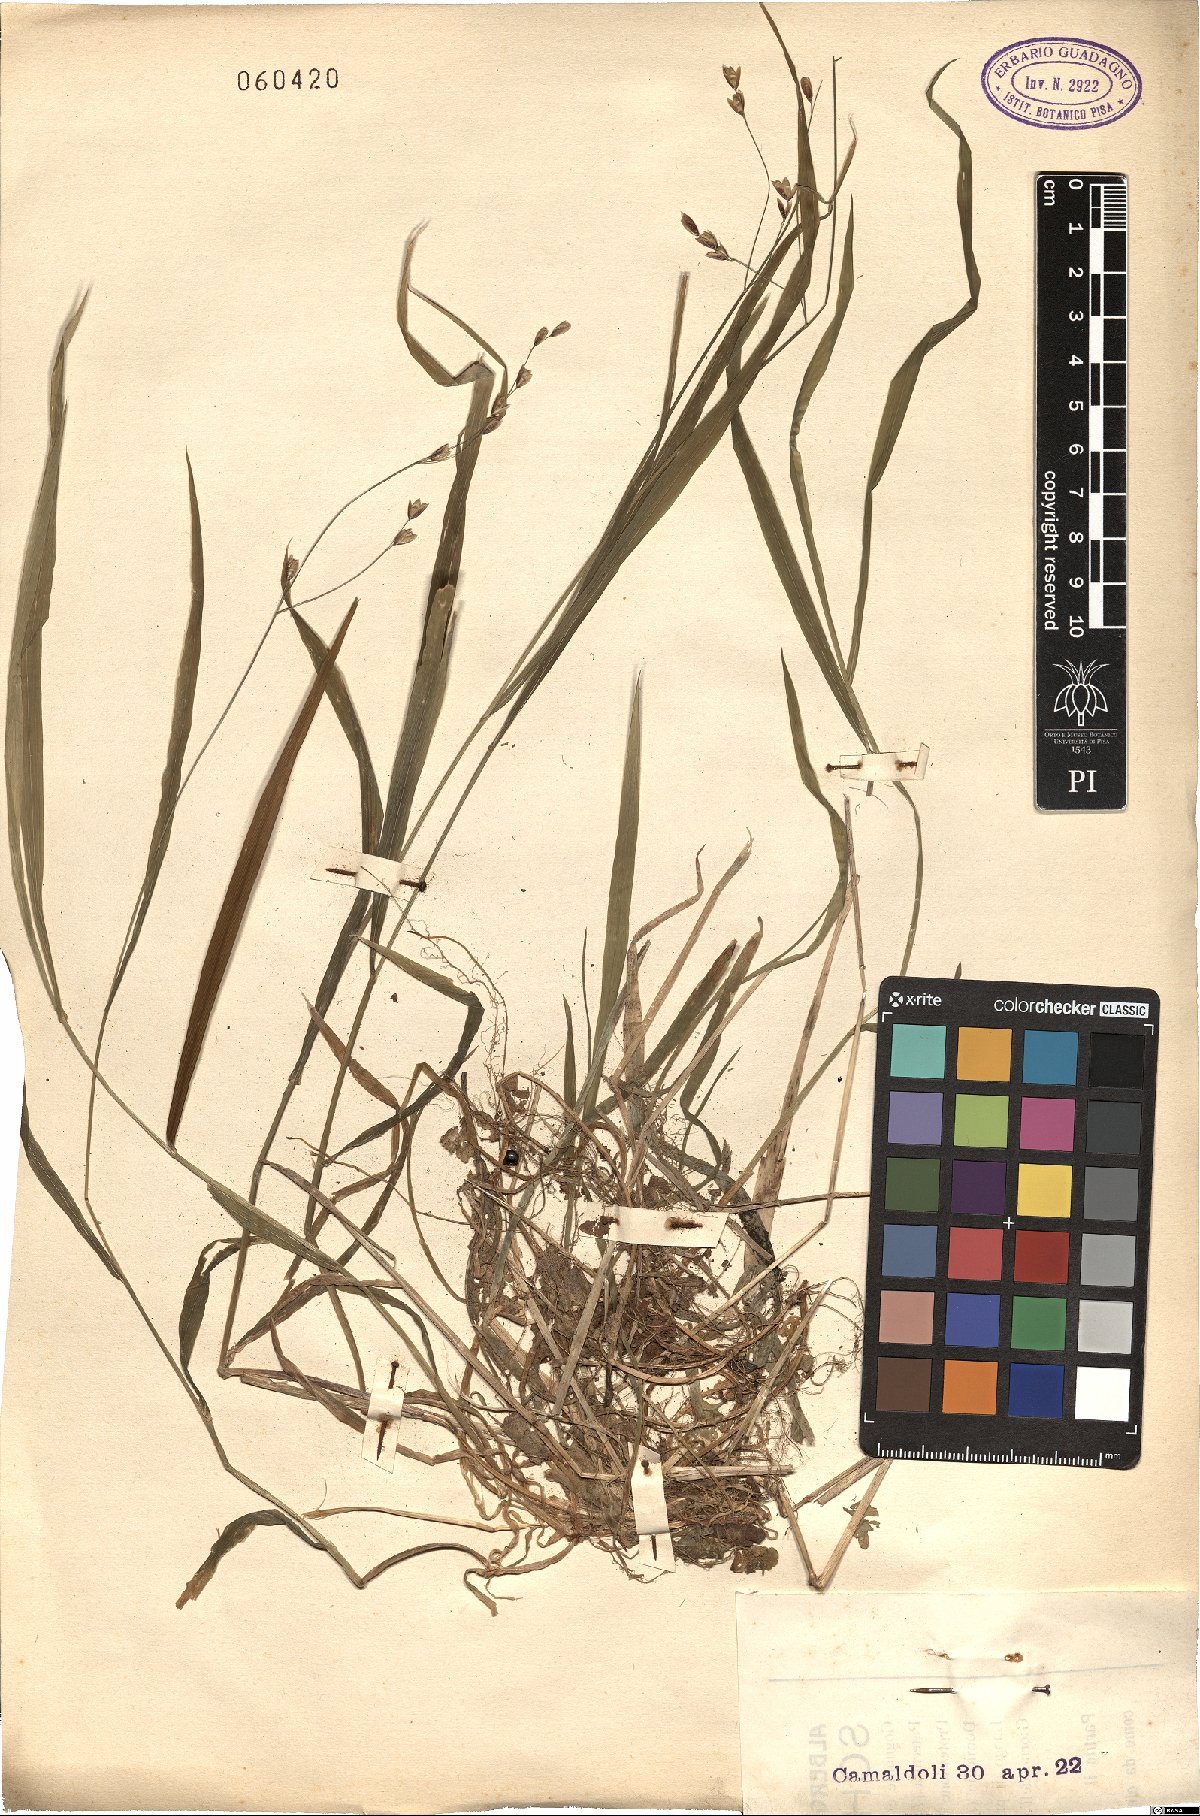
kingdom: Plantae
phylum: Tracheophyta
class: Liliopsida
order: Poales
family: Poaceae
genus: Melica
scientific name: Melica uniflora
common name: Wood melick
